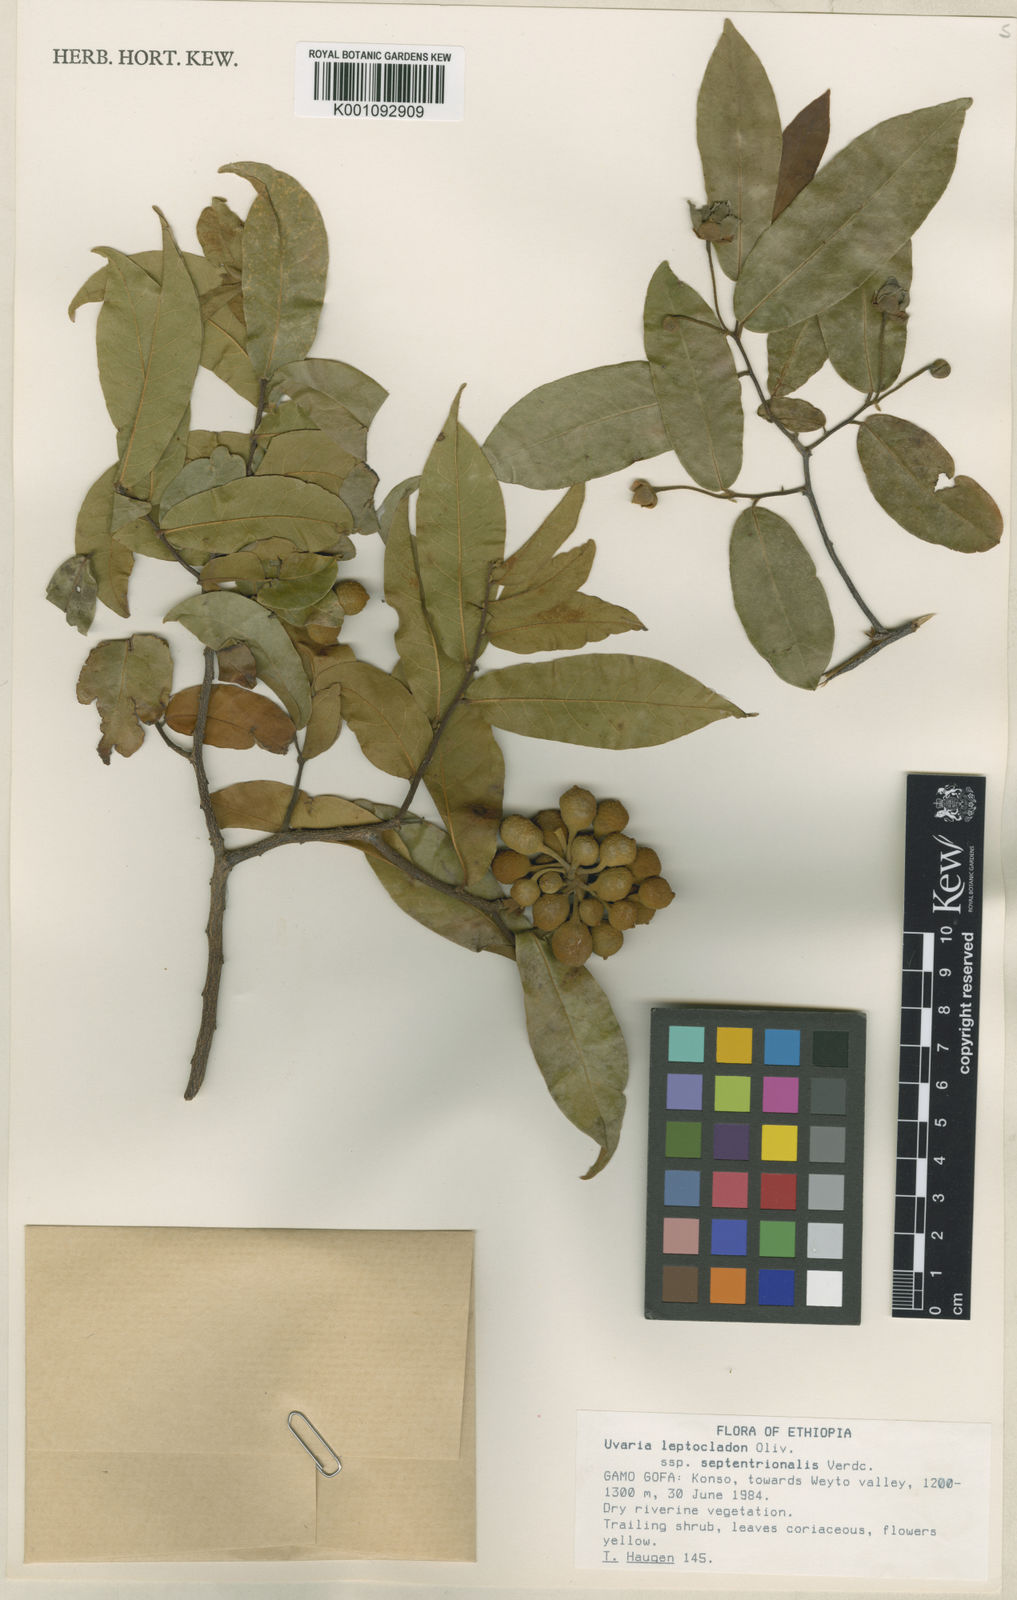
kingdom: Plantae
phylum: Tracheophyta
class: Magnoliopsida
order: Magnoliales
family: Annonaceae
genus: Uvaria
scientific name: Uvaria leptocladon
